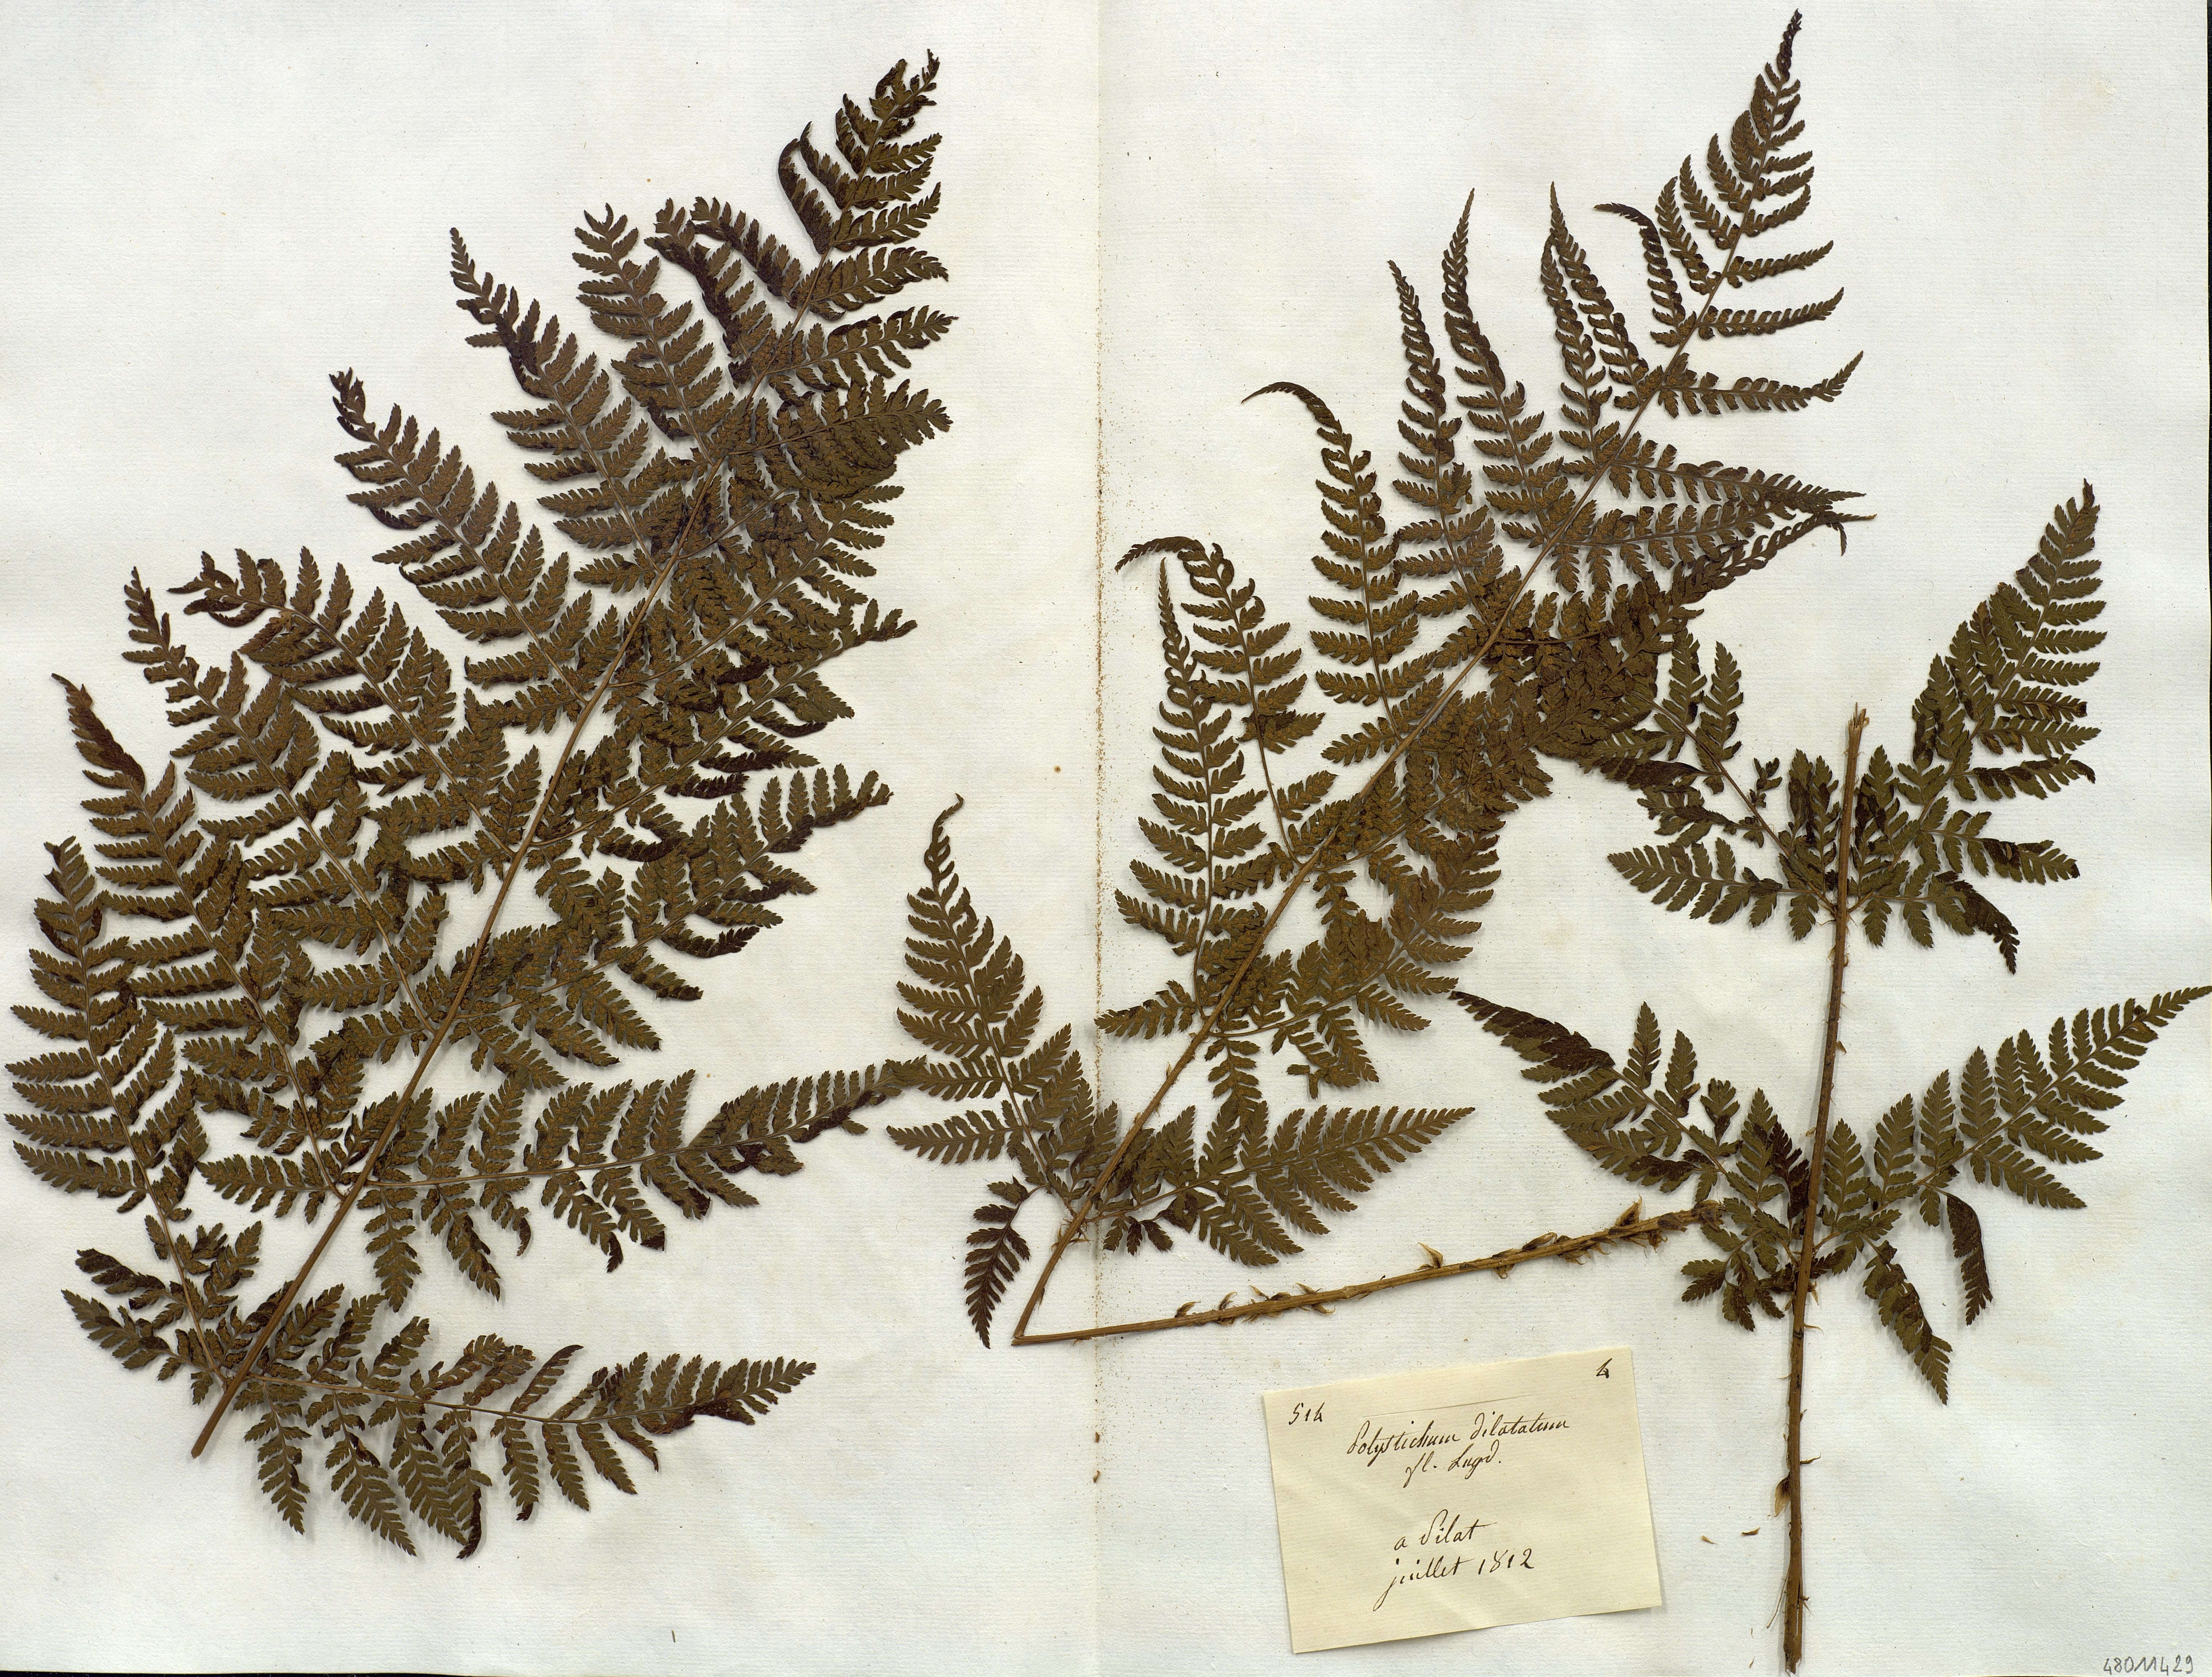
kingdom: Plantae
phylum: Tracheophyta
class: Polypodiopsida
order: Polypodiales
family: Dryopteridaceae
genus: Dryopteris
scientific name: Dryopteris dilatata
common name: Broad buckler-fern
